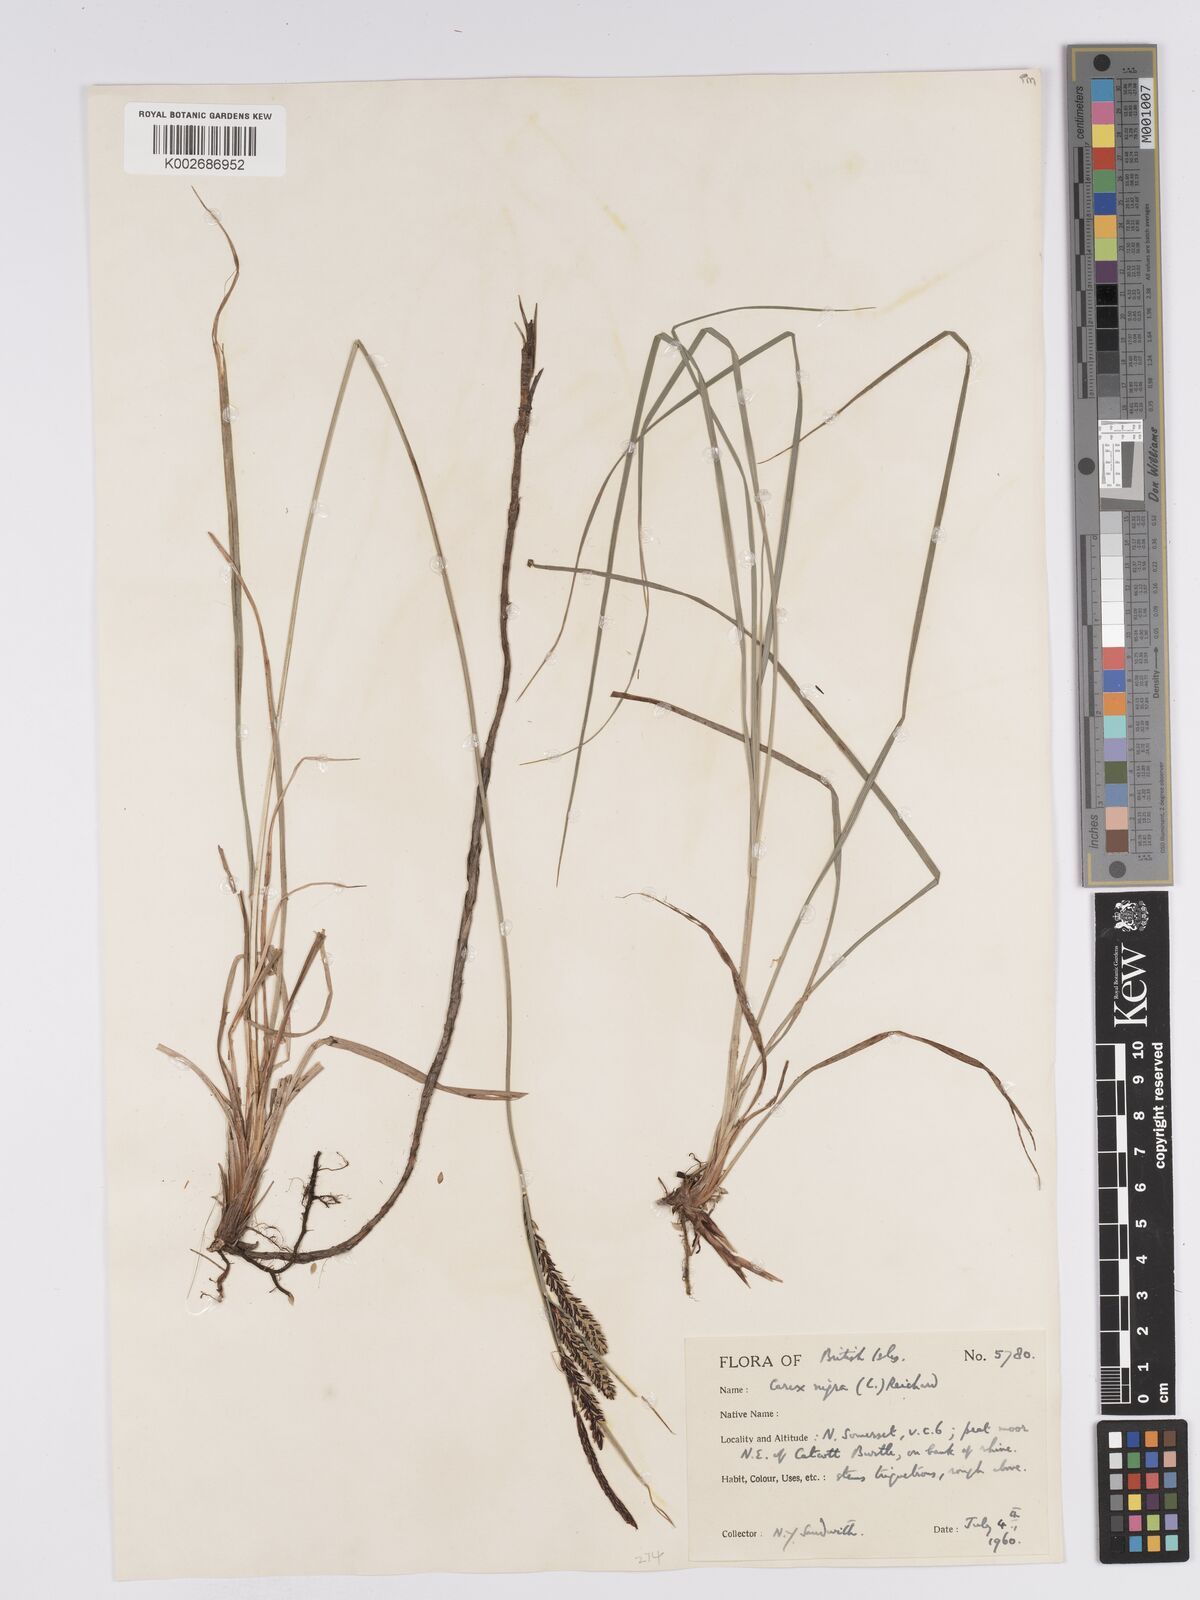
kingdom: Plantae
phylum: Tracheophyta
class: Liliopsida
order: Poales
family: Cyperaceae
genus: Carex
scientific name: Carex nigra
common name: Common sedge
